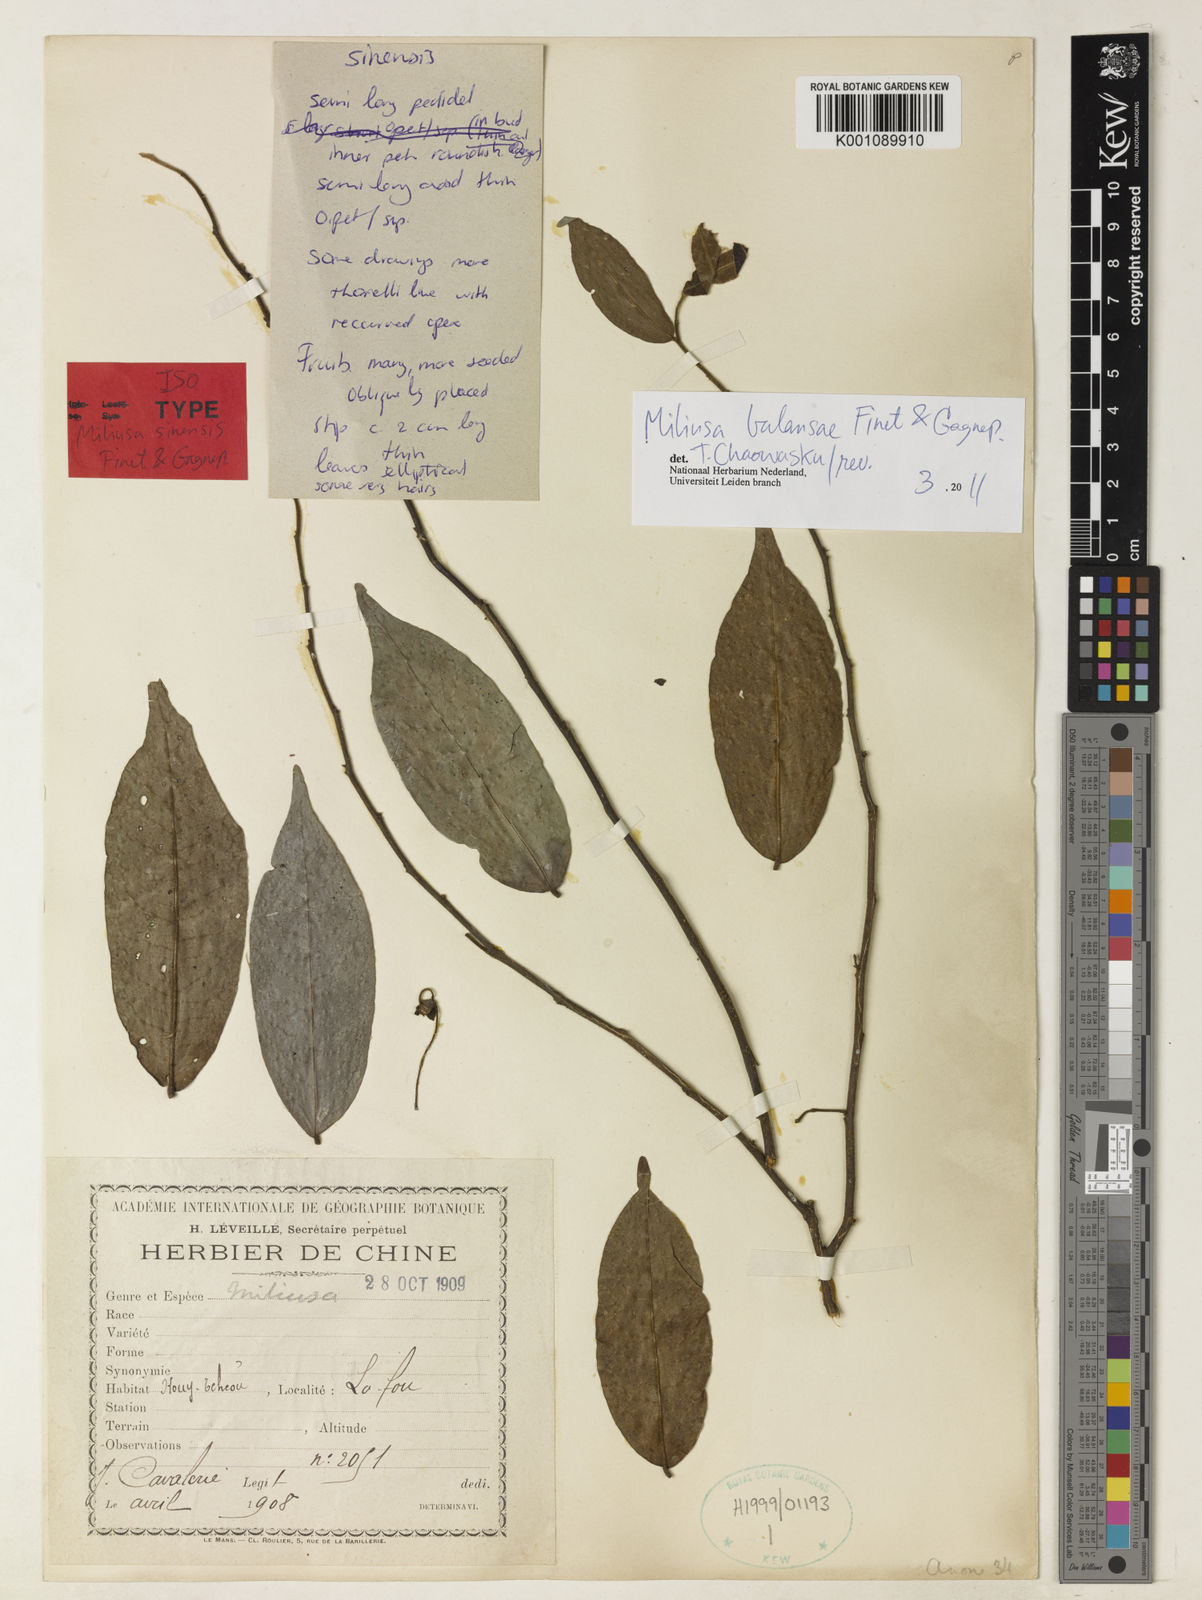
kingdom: Plantae
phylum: Tracheophyta
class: Magnoliopsida
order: Magnoliales
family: Annonaceae
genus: Miliusa
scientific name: Miliusa sinensis
